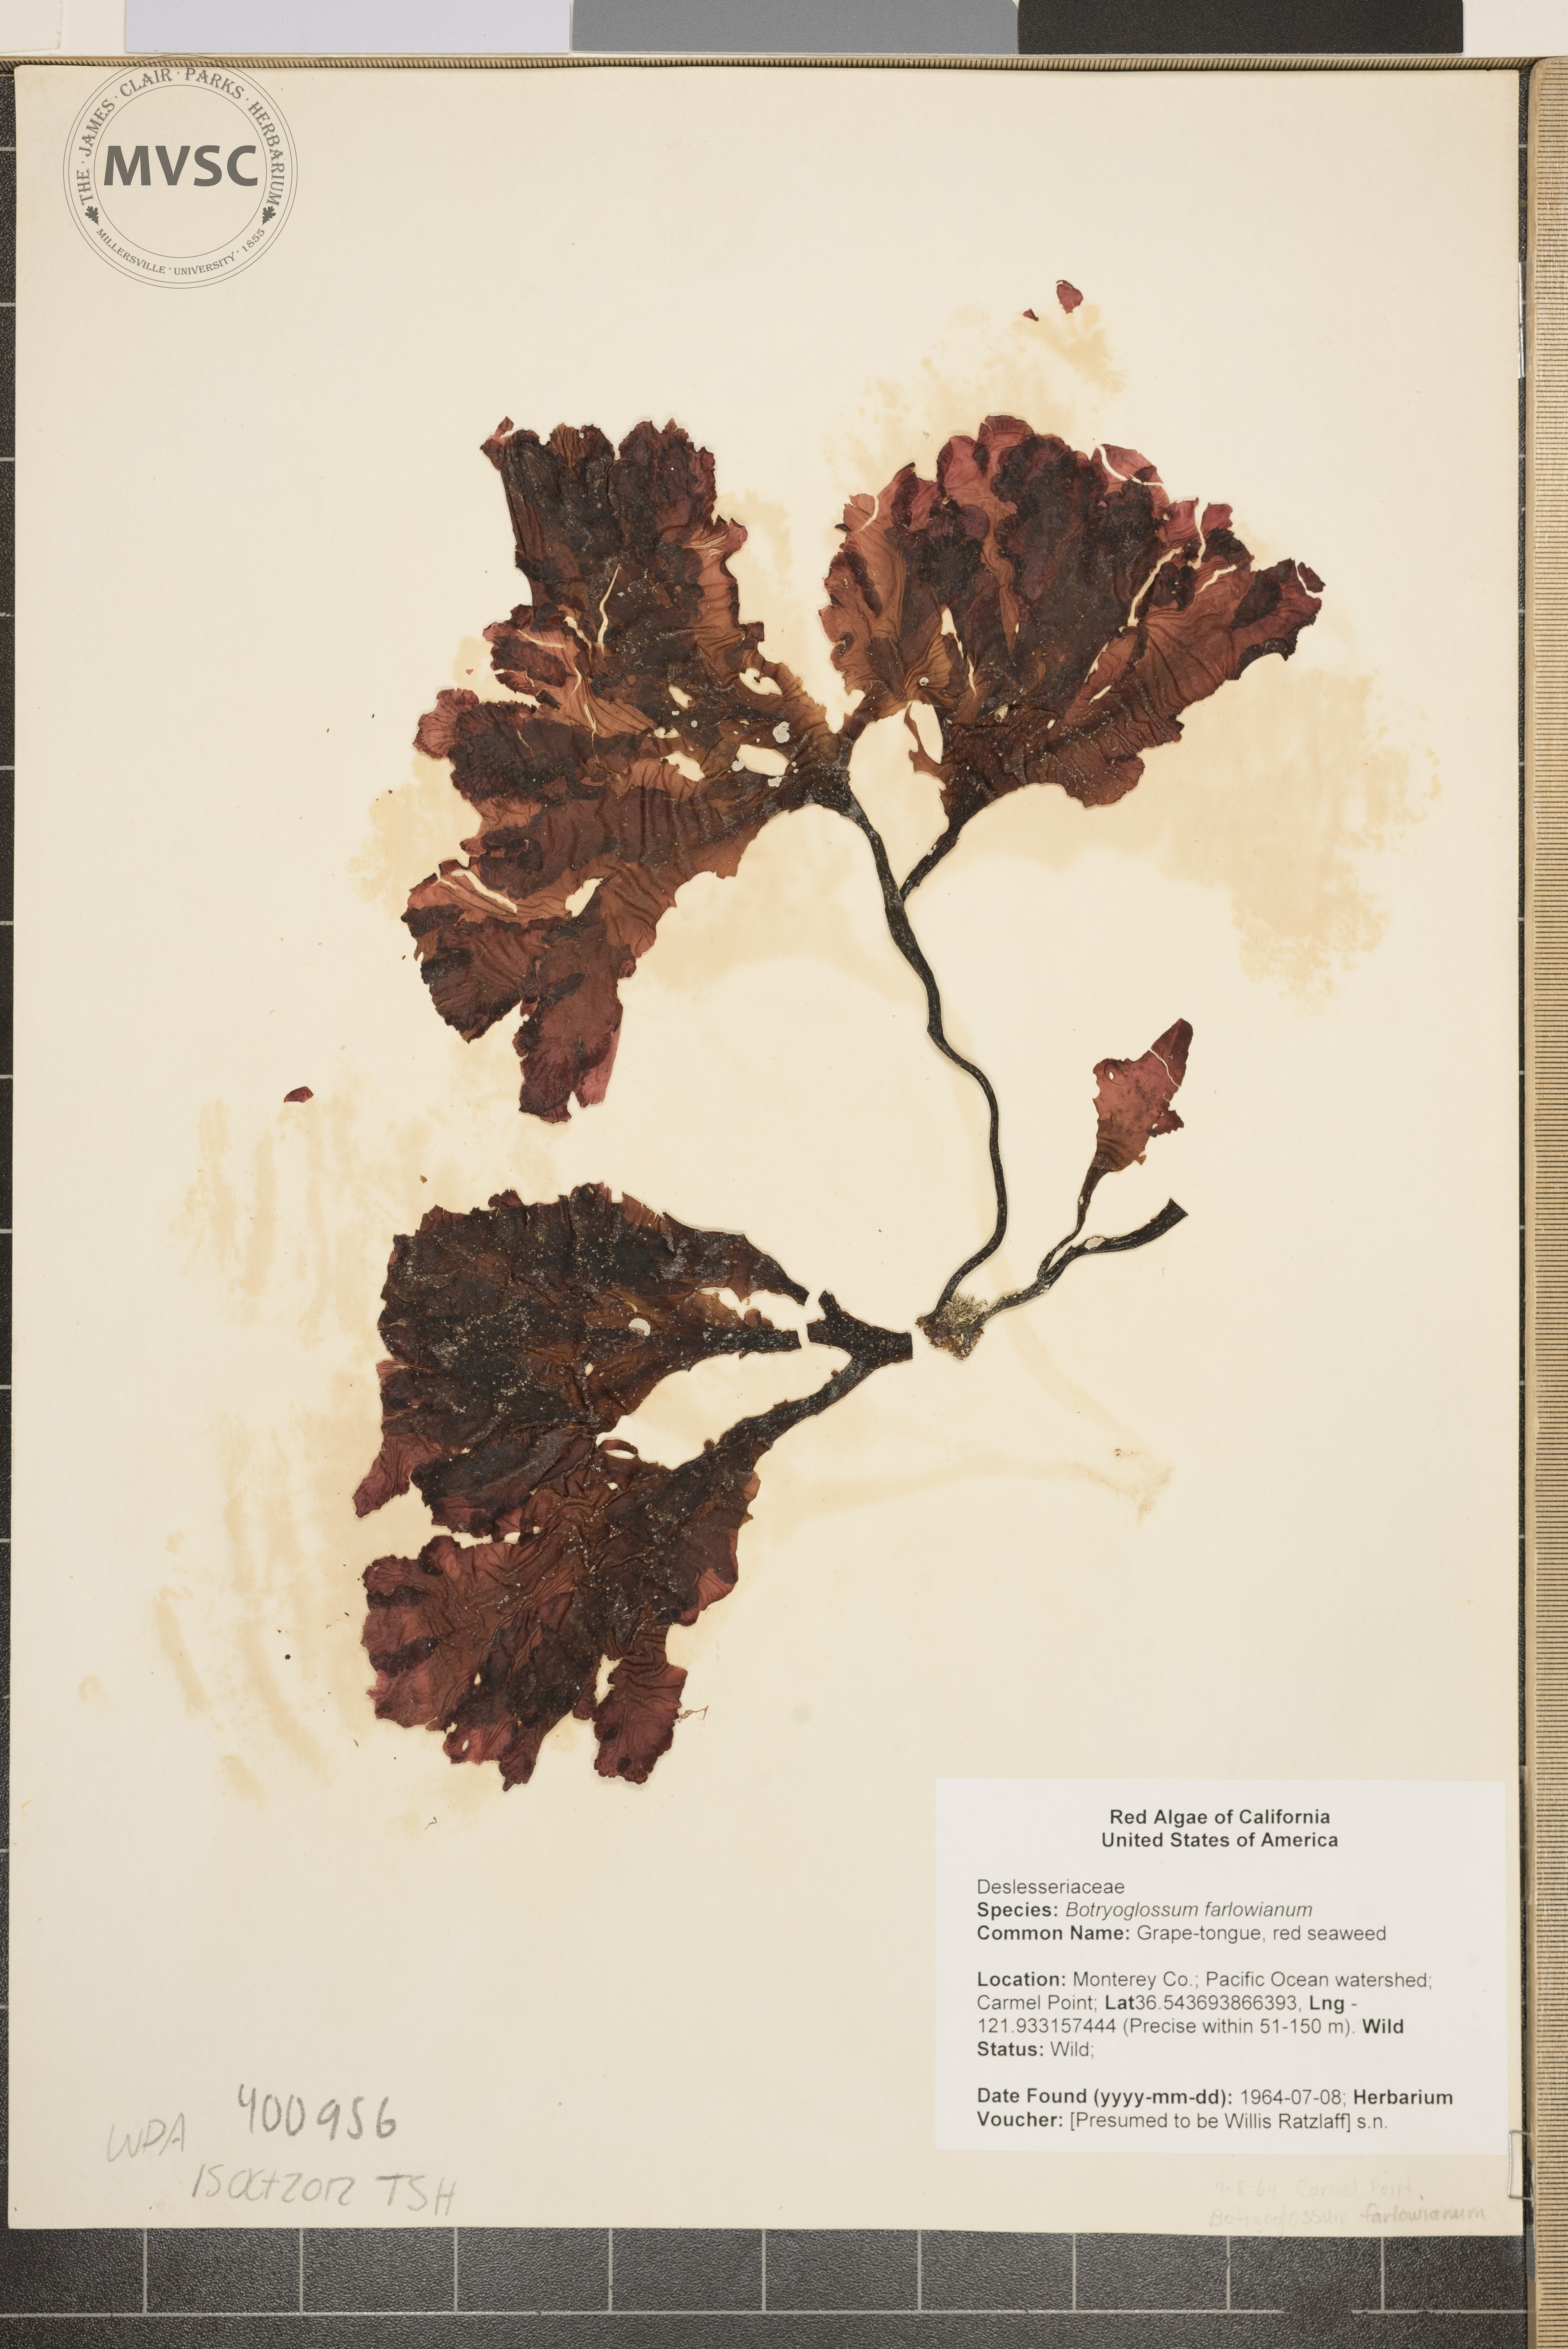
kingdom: Plantae
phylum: Rhodophyta
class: Florideophyceae
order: Ceramiales
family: Delesseriaceae
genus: Botryoglossum
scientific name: Botryoglossum farlowianum
